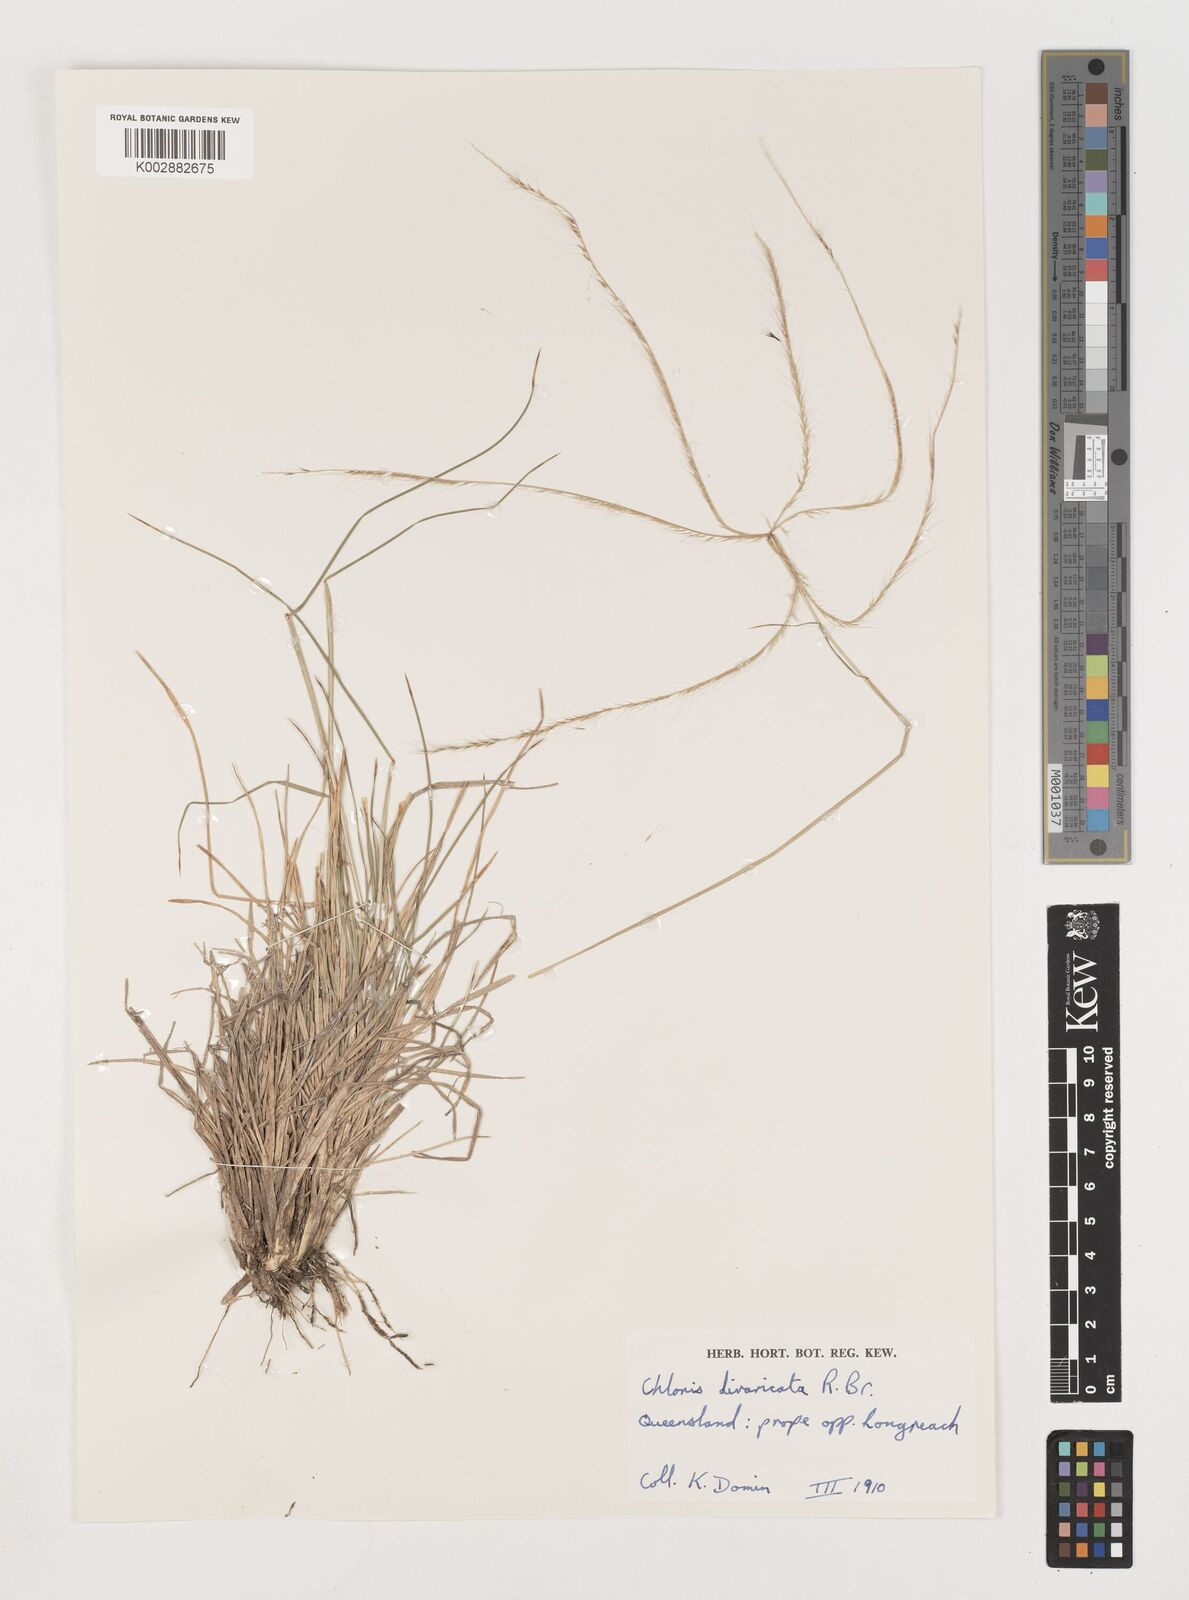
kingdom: Plantae
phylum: Tracheophyta
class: Liliopsida
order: Poales
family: Poaceae
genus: Chloris
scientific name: Chloris divaricata
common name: Spreading windmill grass
